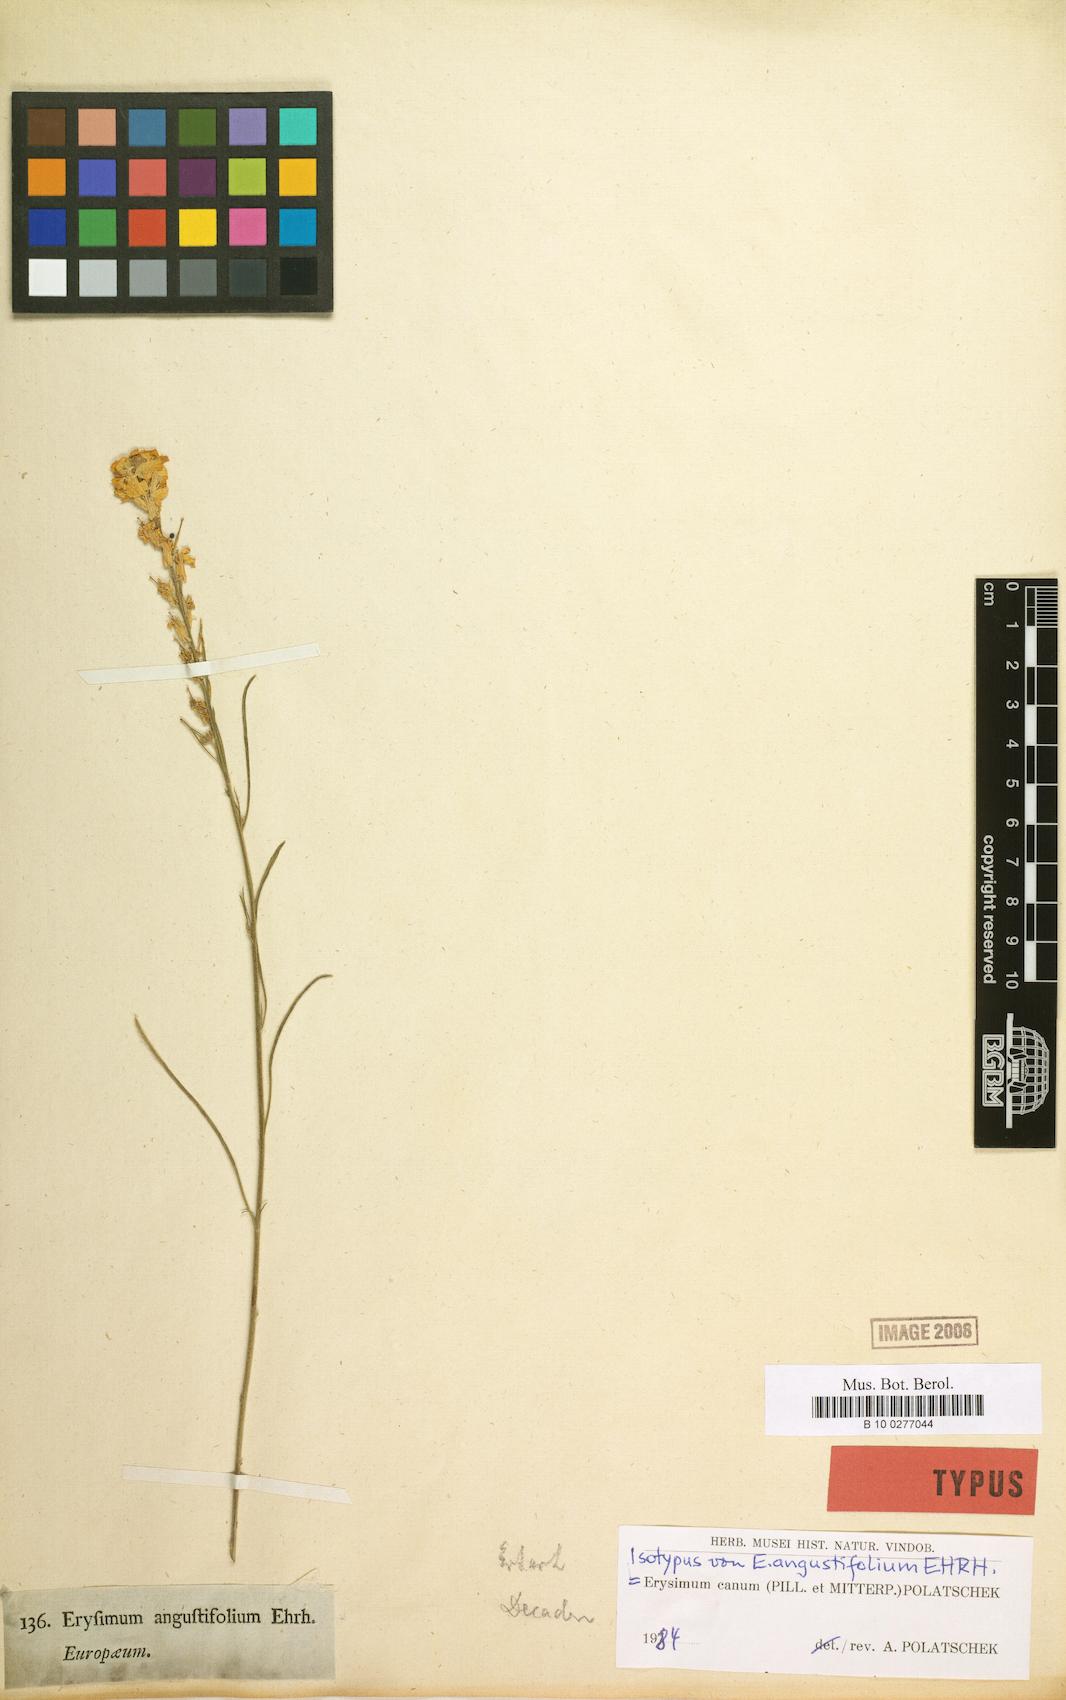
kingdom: Plantae
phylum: Tracheophyta
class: Magnoliopsida
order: Brassicales
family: Brassicaceae
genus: Erysimum
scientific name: Erysimum canum
